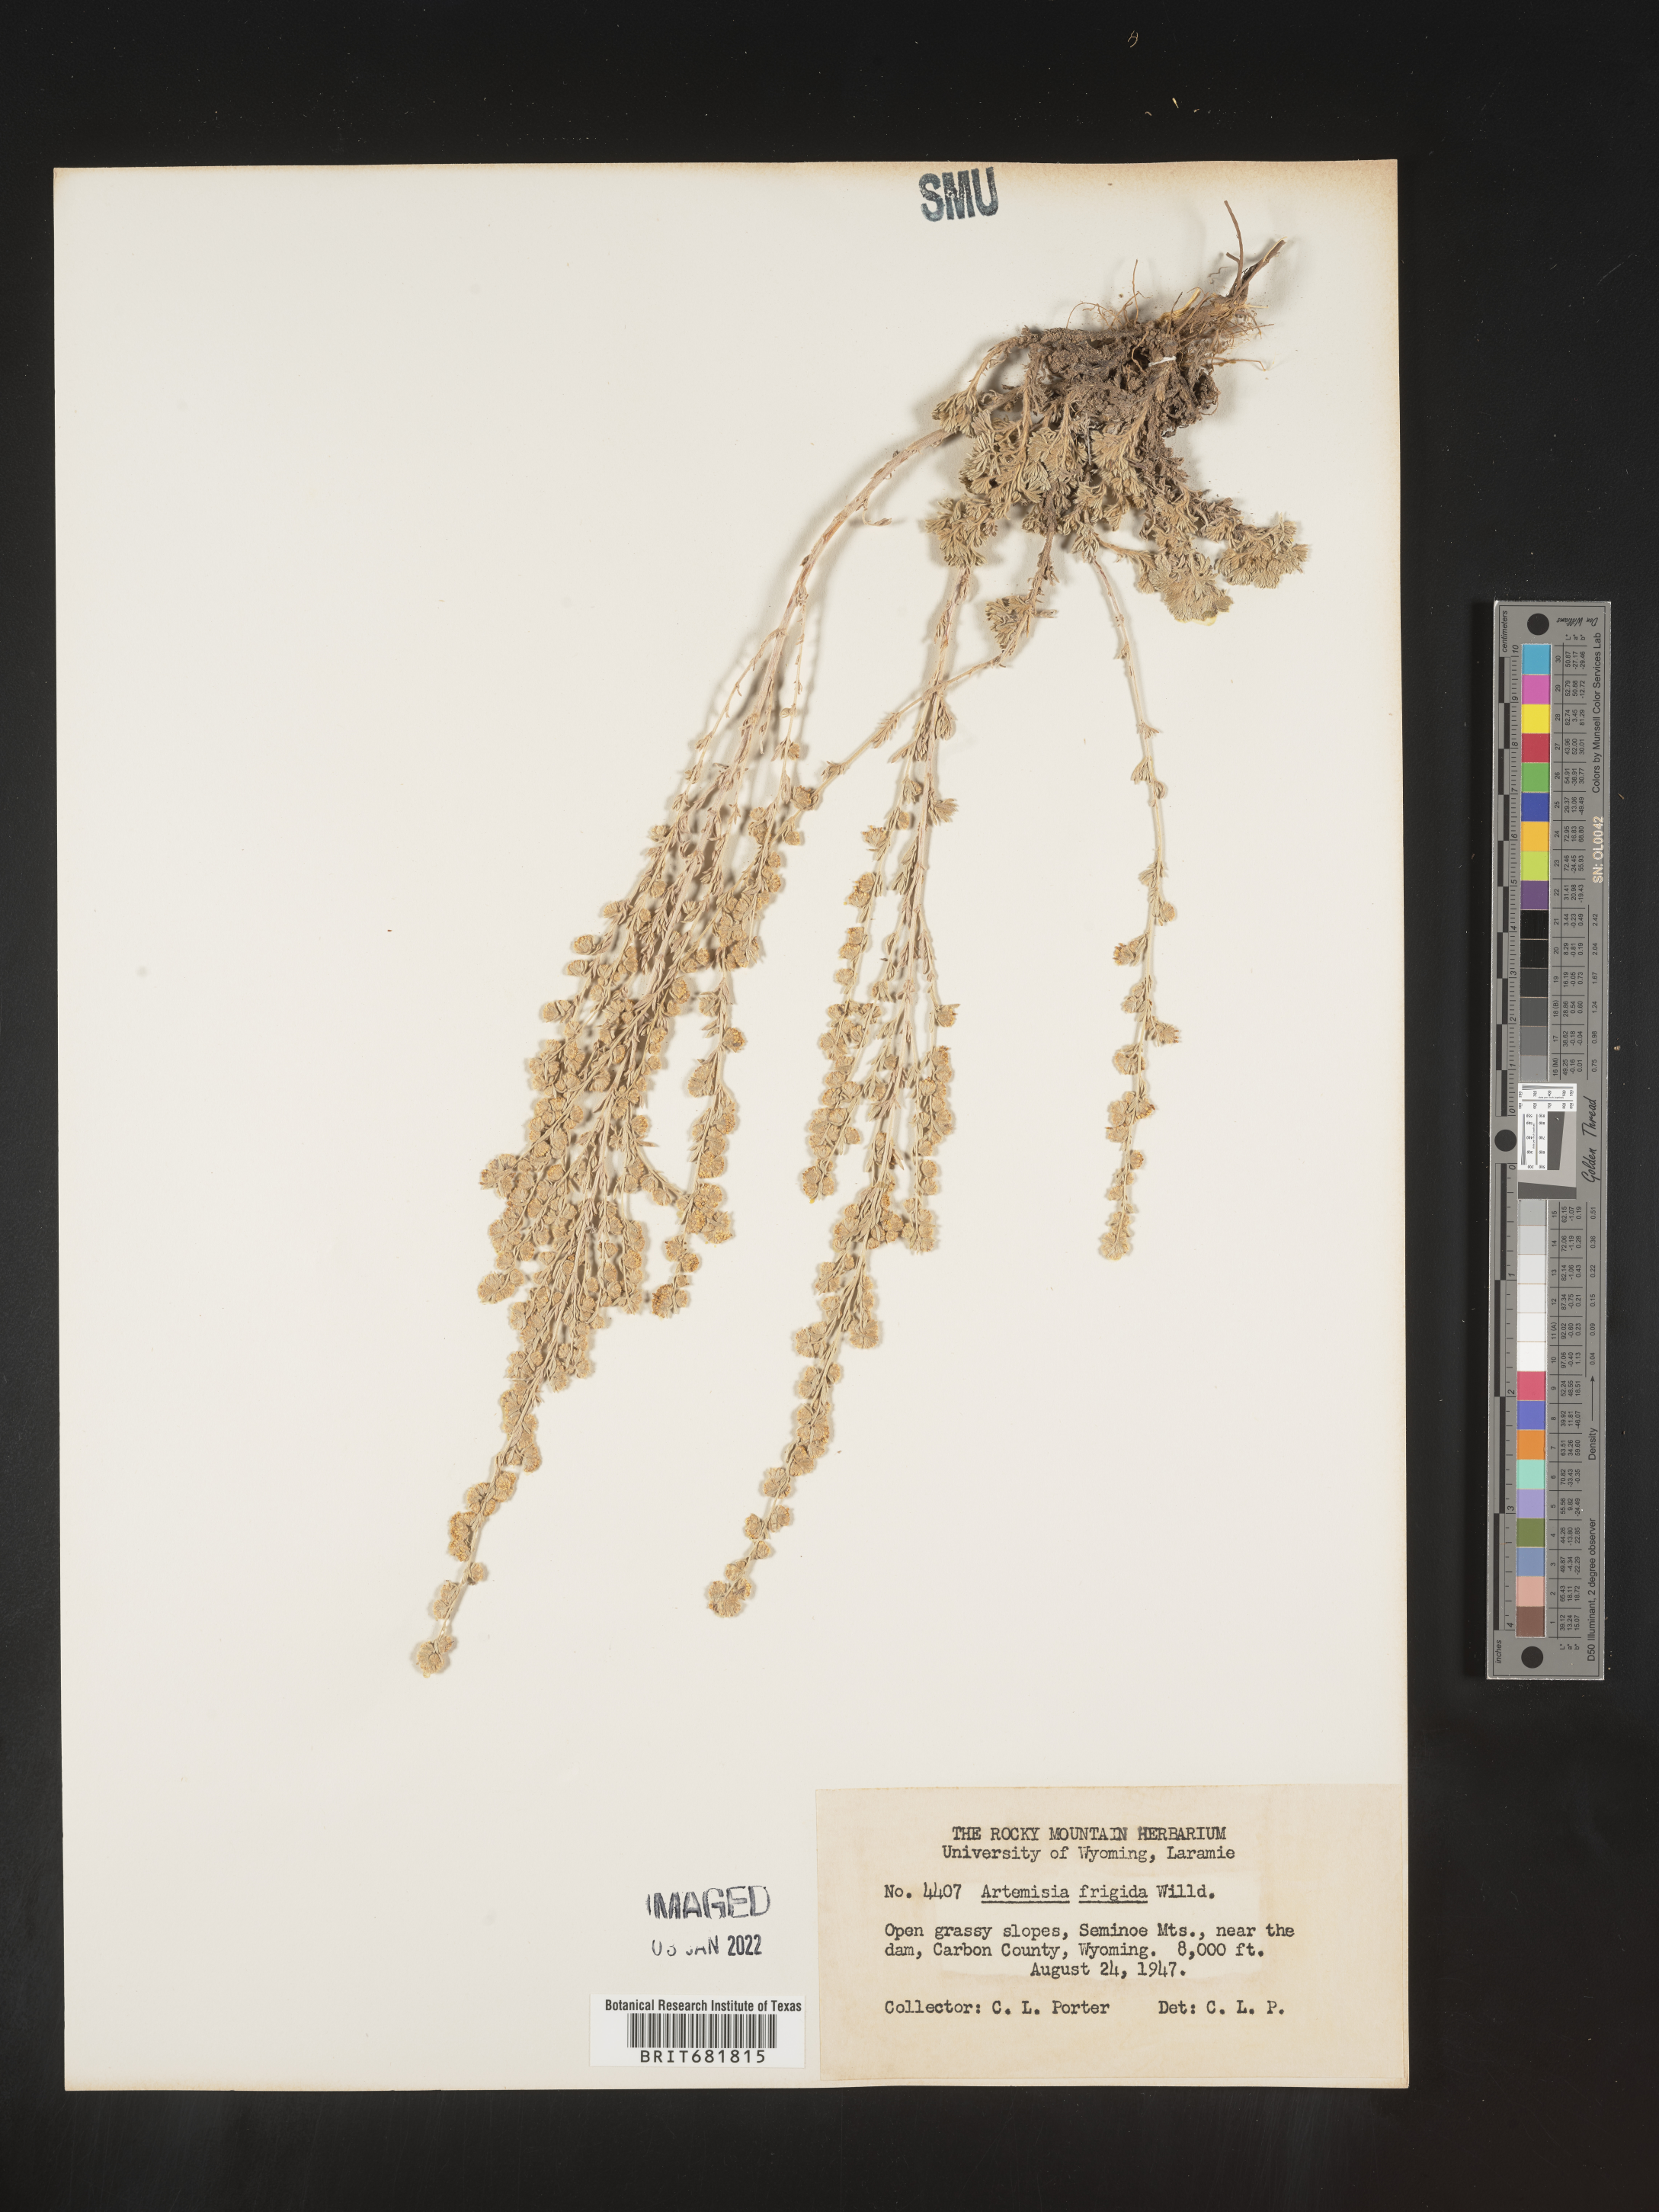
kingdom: Plantae
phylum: Tracheophyta
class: Magnoliopsida
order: Asterales
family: Asteraceae
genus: Artemisia
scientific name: Artemisia frigida
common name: Prairie sagewort
